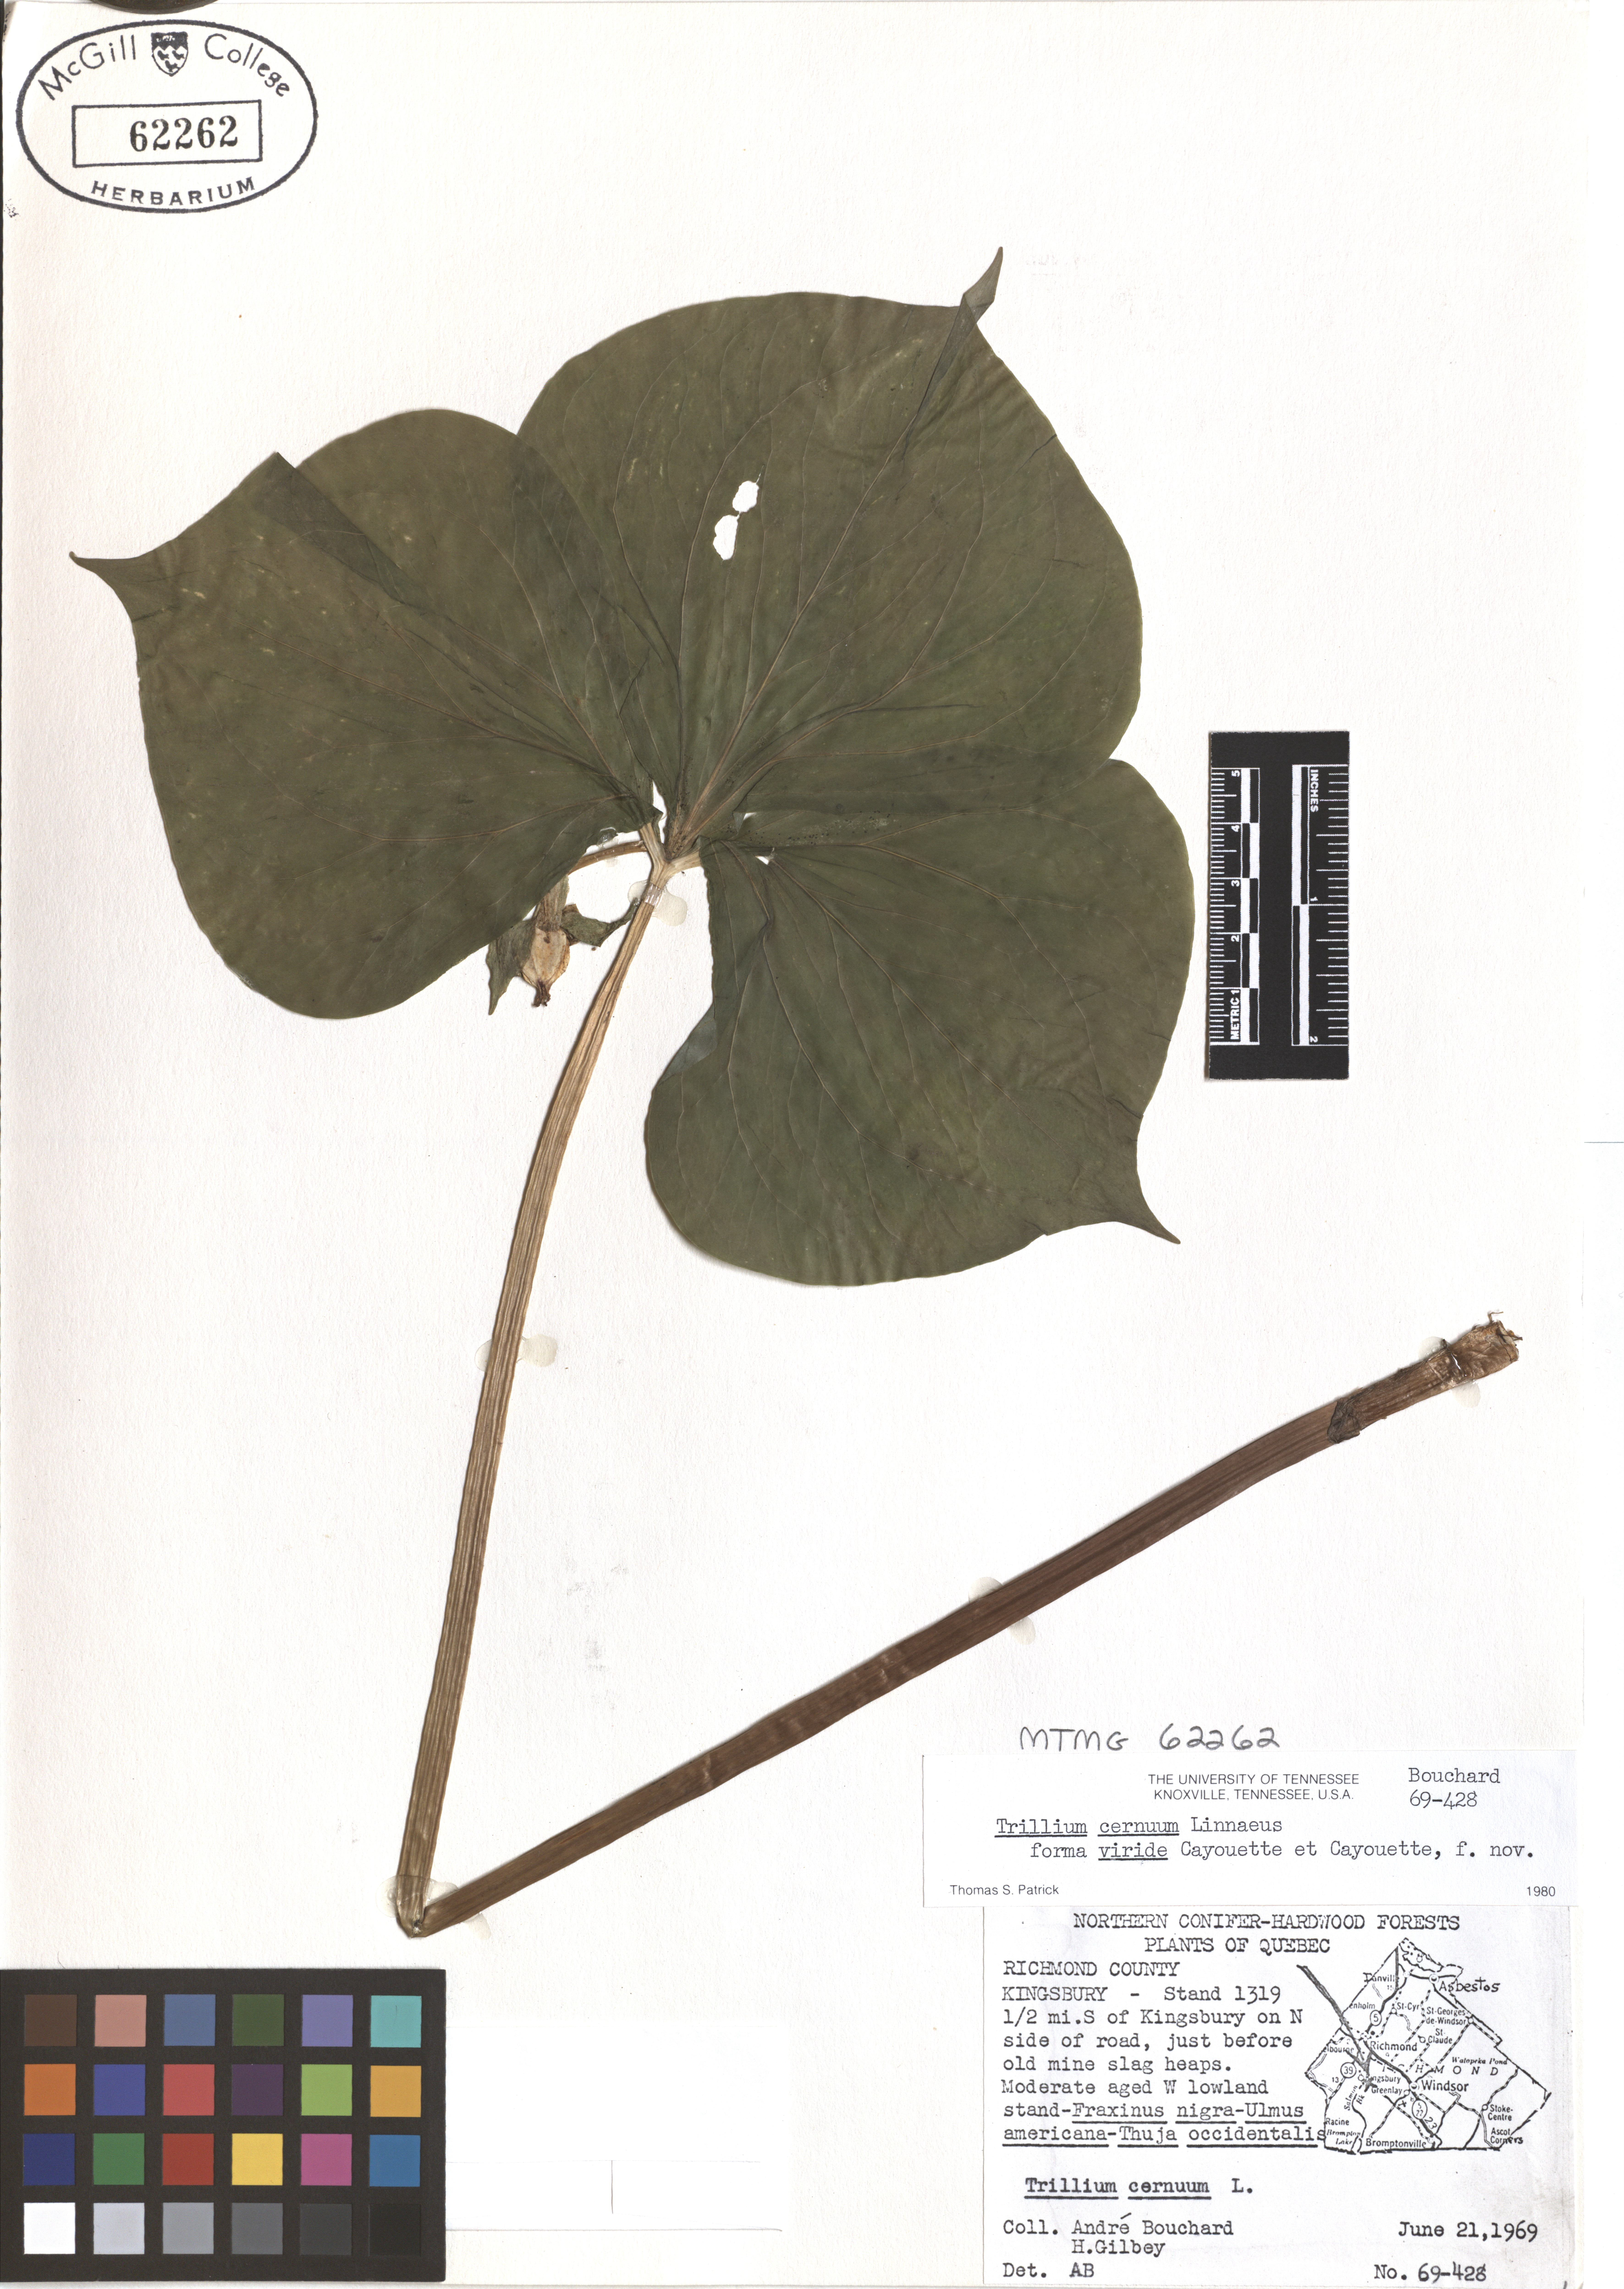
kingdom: Plantae
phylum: Tracheophyta
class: Liliopsida
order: Liliales
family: Melanthiaceae
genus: Trillium
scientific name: Trillium cernuum
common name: Nodding trillium
